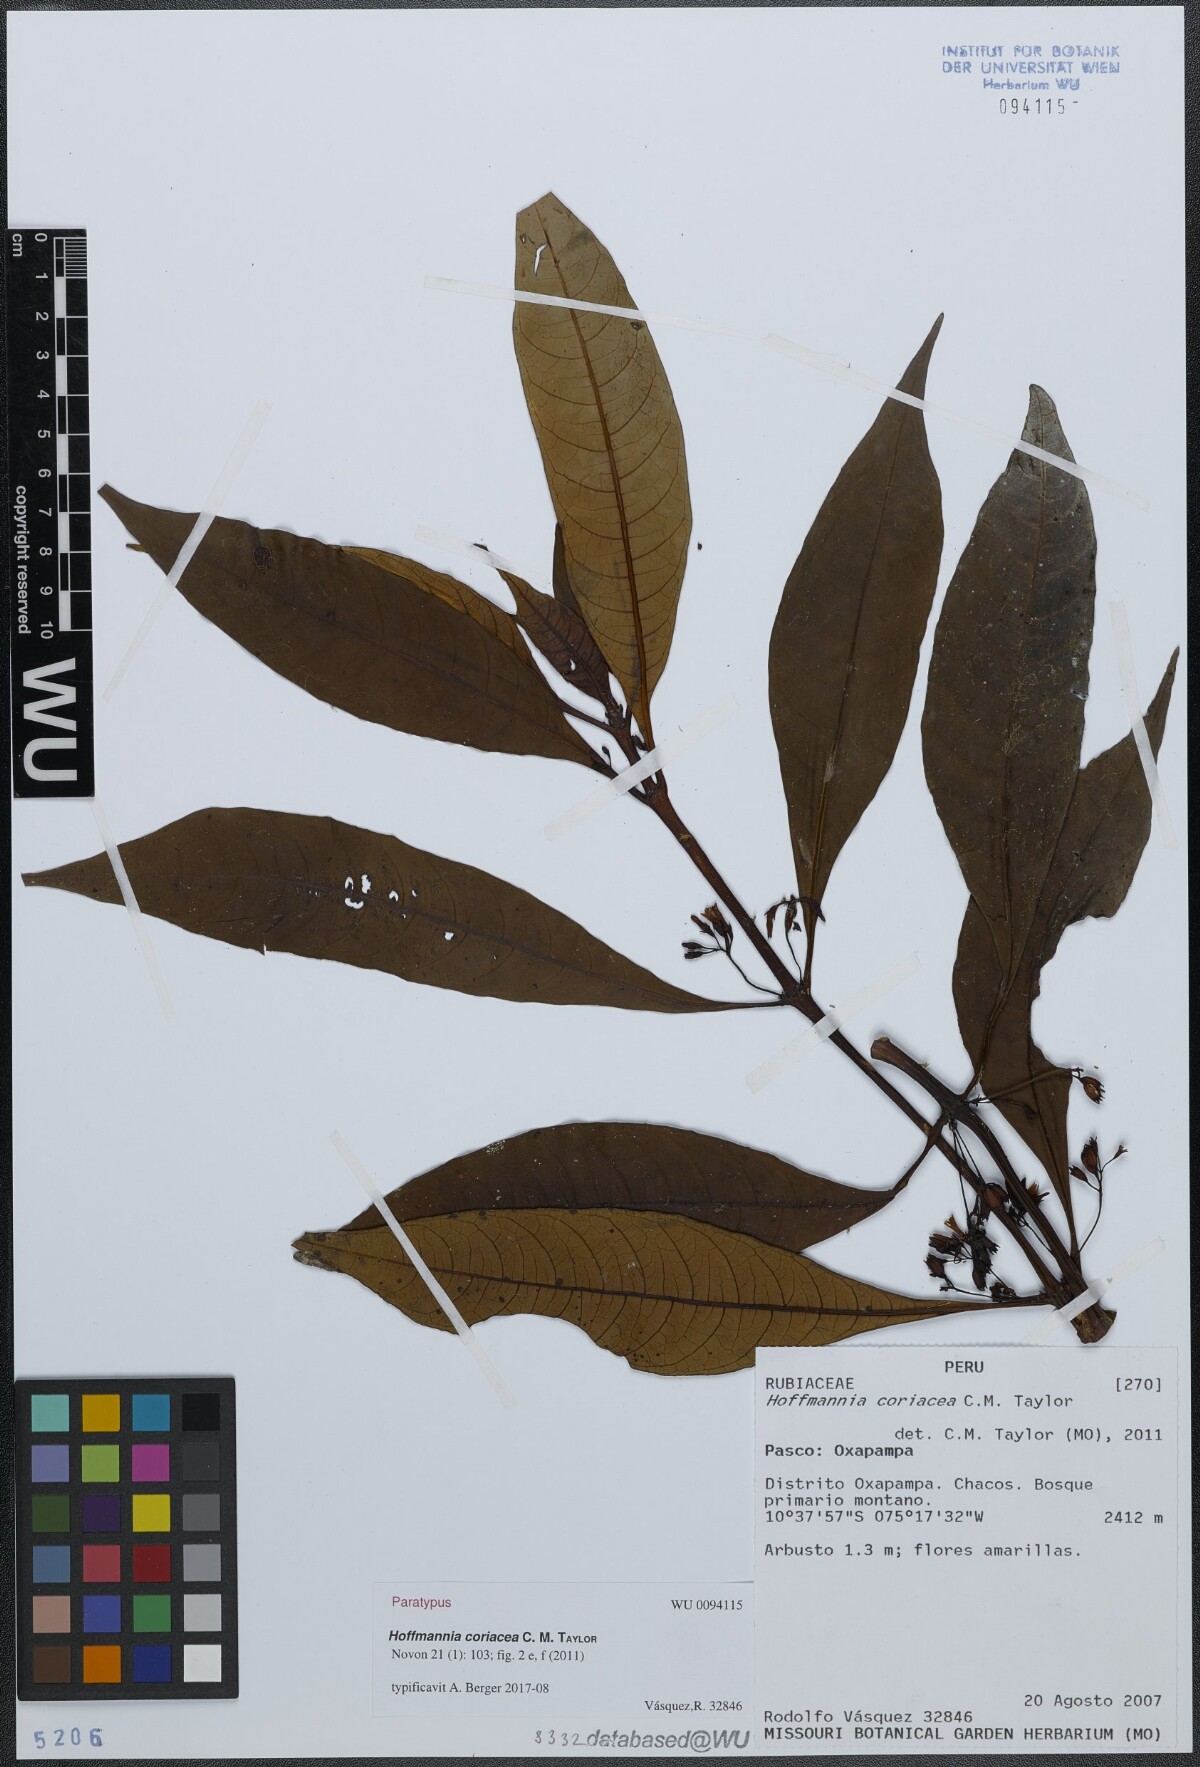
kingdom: Plantae
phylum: Tracheophyta
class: Magnoliopsida
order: Gentianales
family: Rubiaceae
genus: Hoffmannia
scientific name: Hoffmannia coriacea
